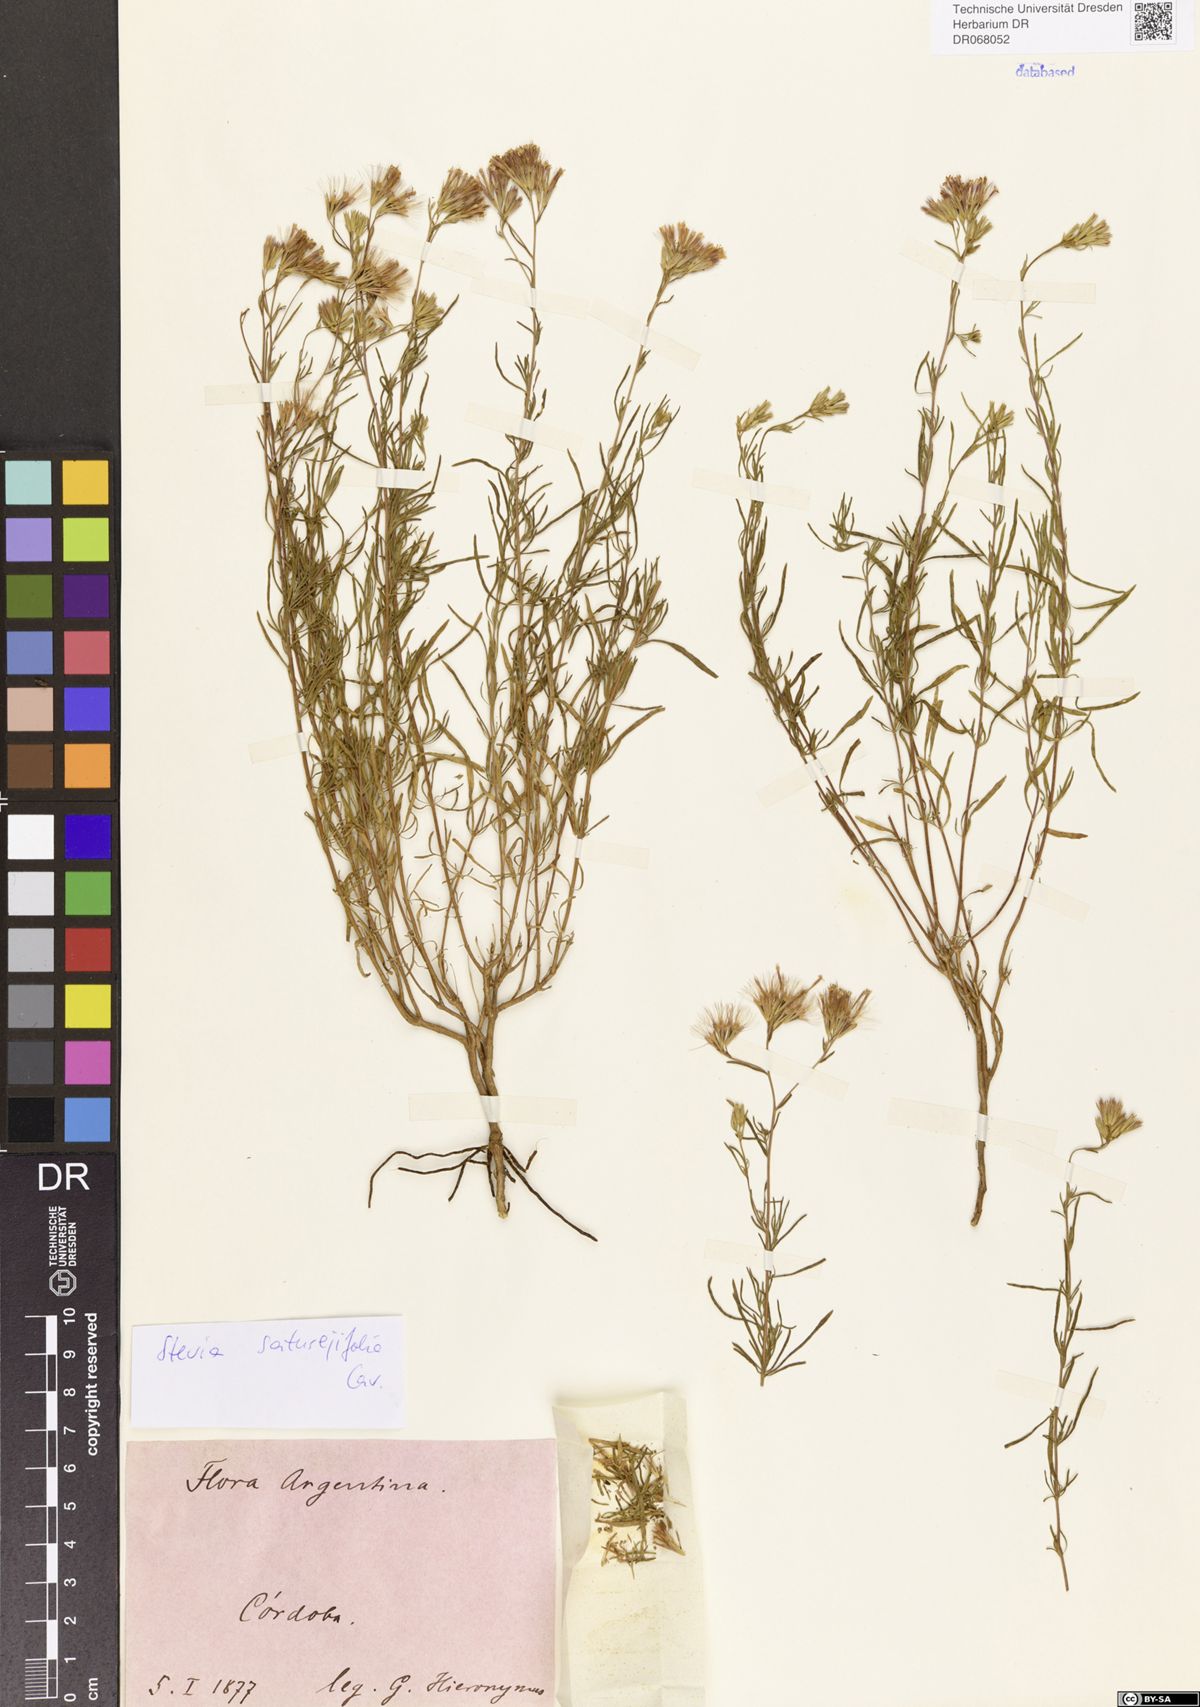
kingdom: Plantae
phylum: Tracheophyta
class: Magnoliopsida
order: Asterales
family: Asteraceae
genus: Stevia
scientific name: Stevia satureifolia
